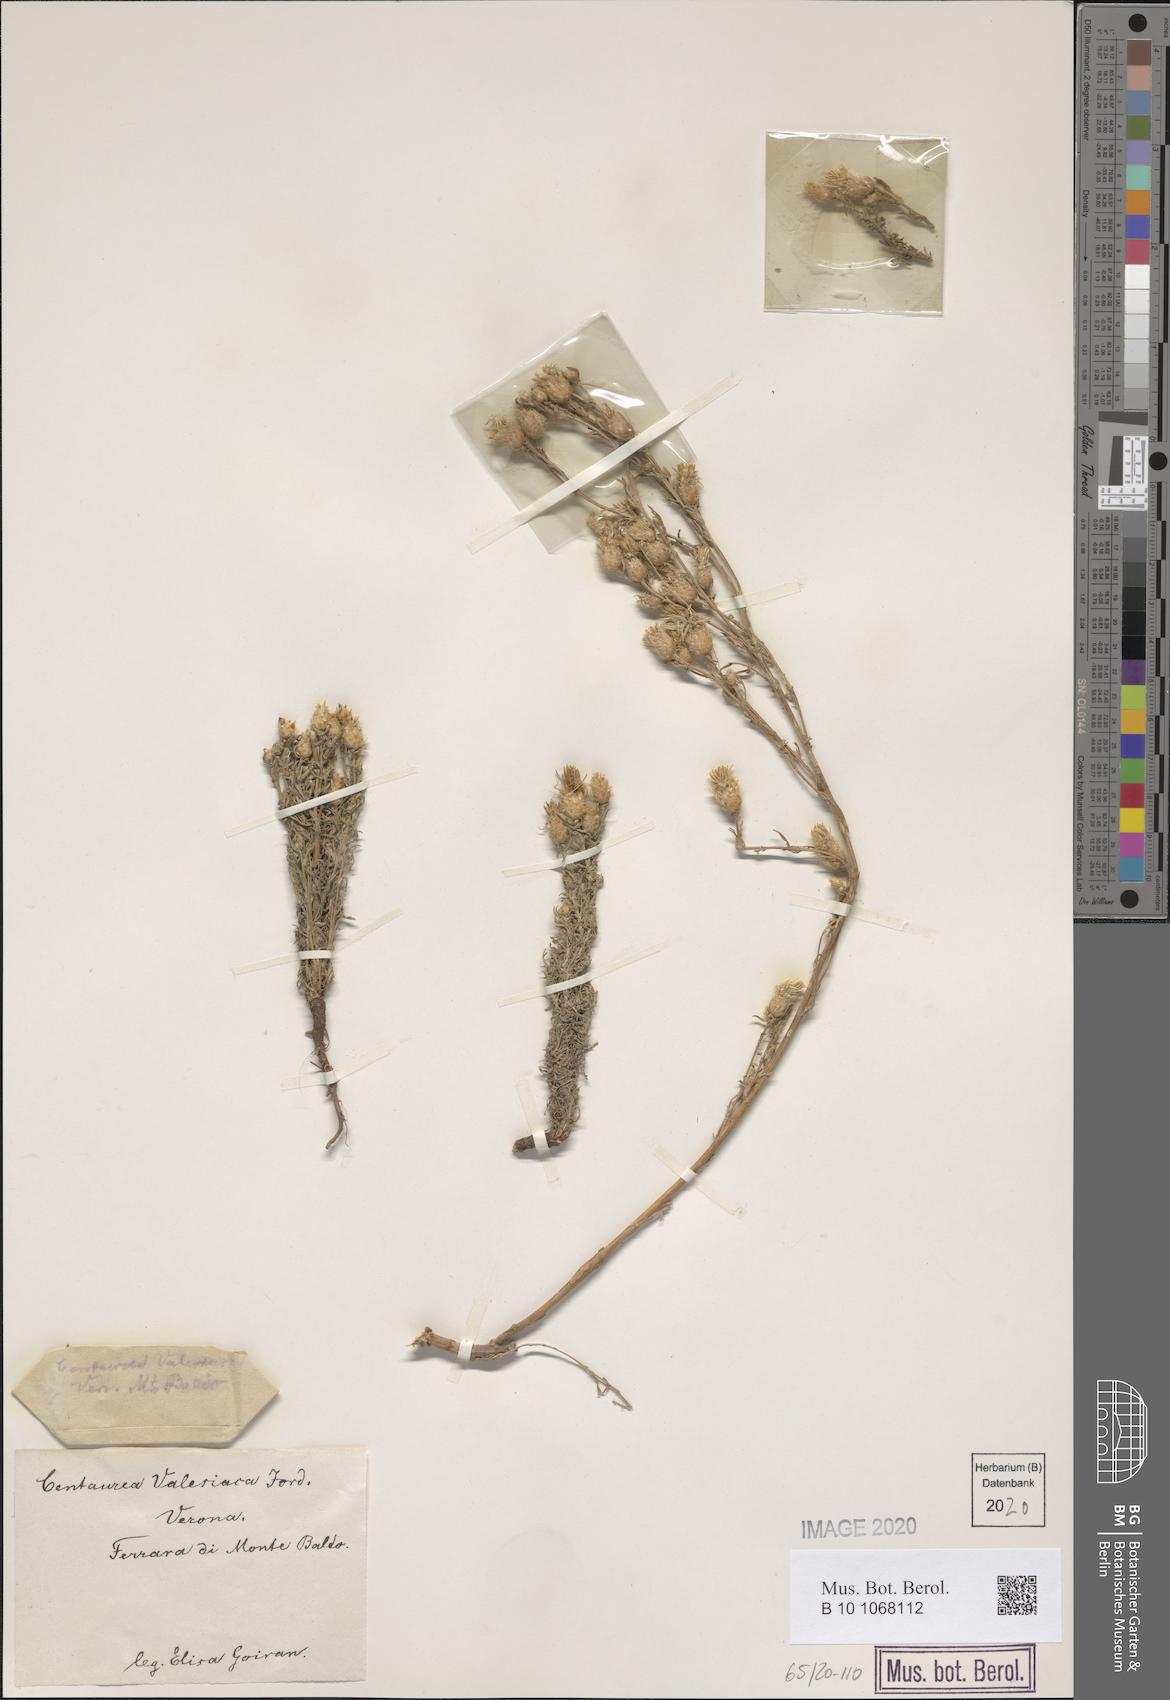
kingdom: Plantae
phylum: Tracheophyta
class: Magnoliopsida
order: Asterales
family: Asteraceae
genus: Centaurea
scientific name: Centaurea valesiaca
